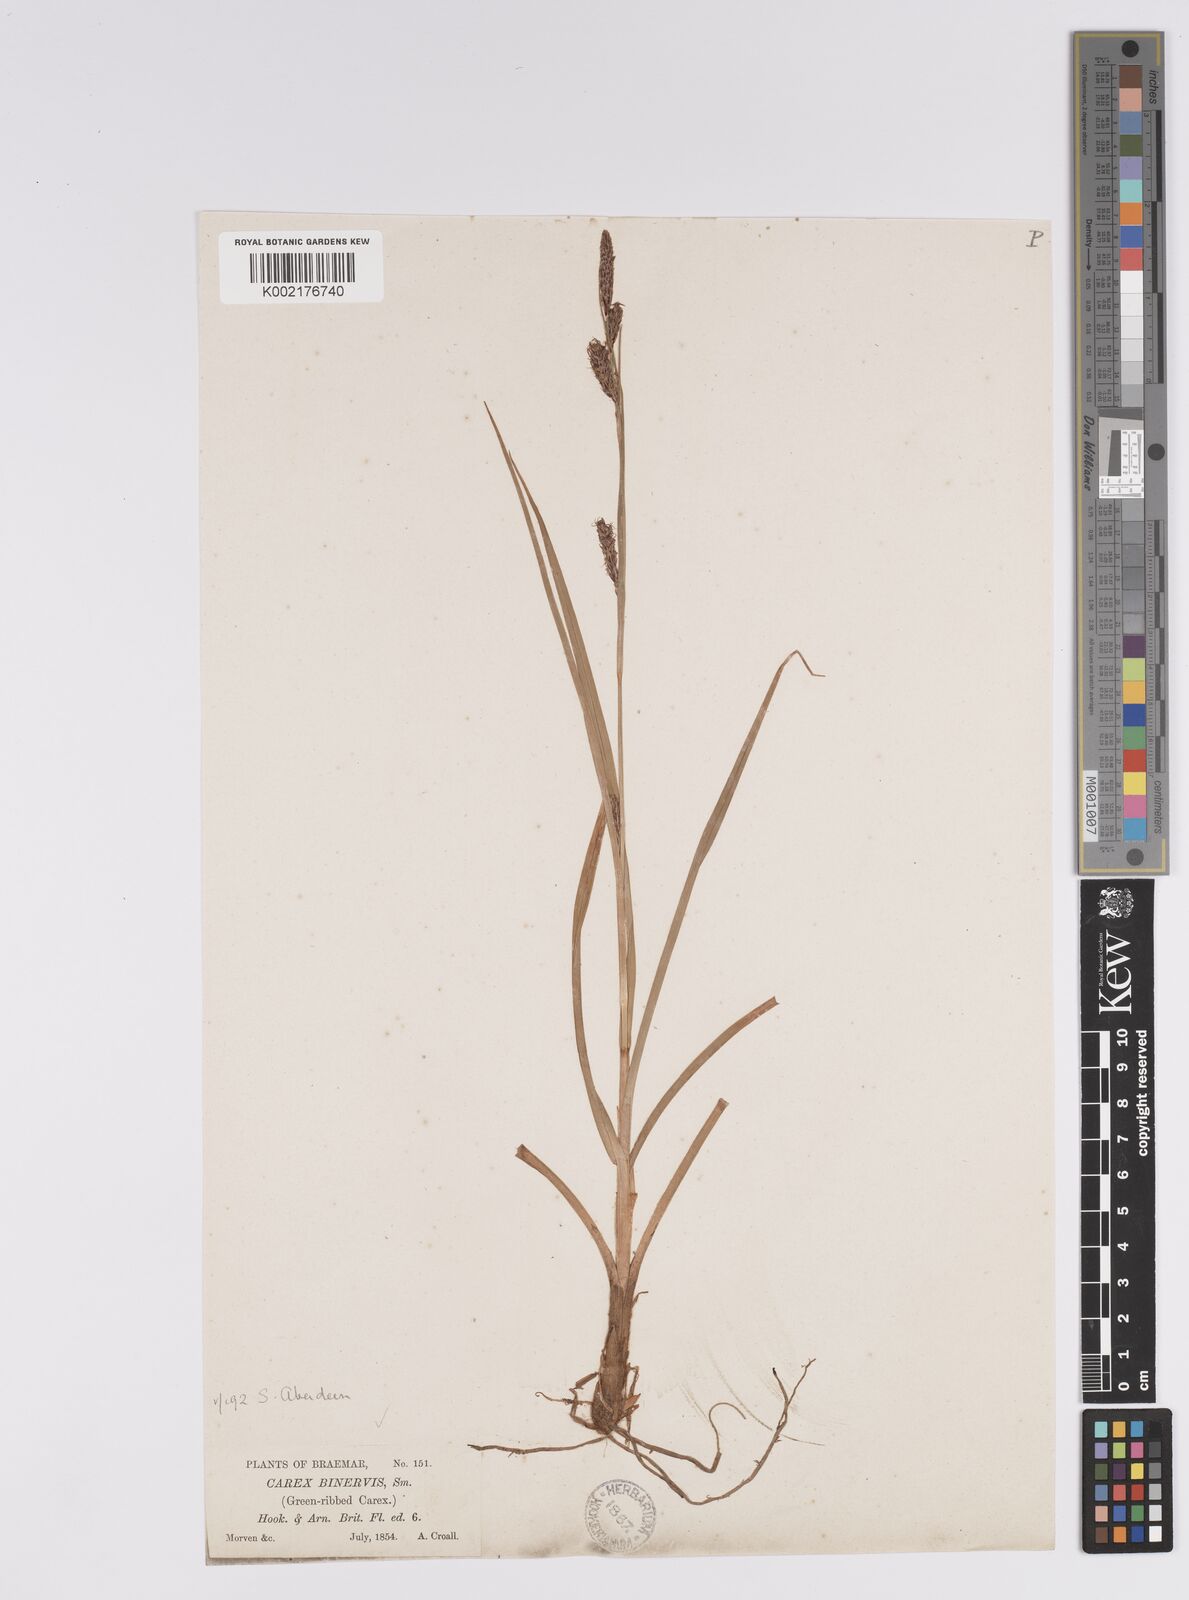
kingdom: Plantae
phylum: Tracheophyta
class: Liliopsida
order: Poales
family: Cyperaceae
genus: Carex
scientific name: Carex binervis
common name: Green-ribbed sedge
